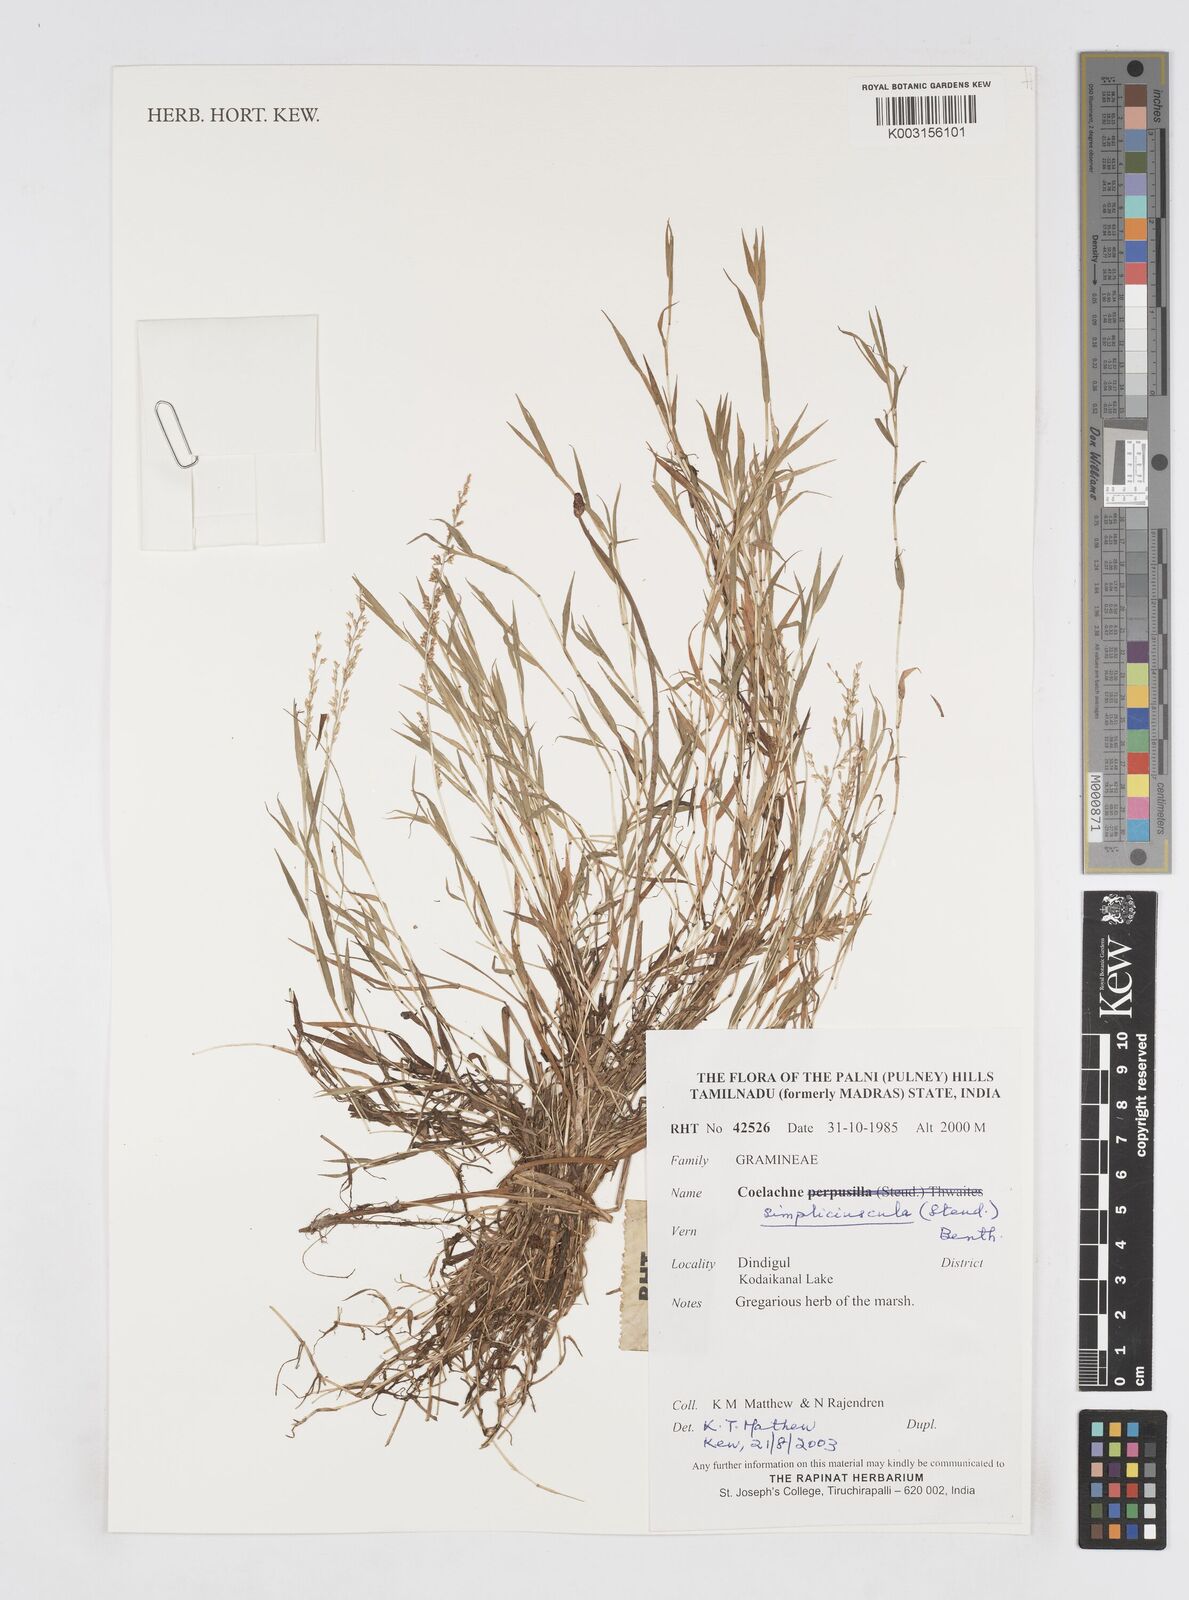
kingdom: Plantae
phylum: Tracheophyta
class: Liliopsida
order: Poales
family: Poaceae
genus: Coelachne
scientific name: Coelachne simpliciuscula
